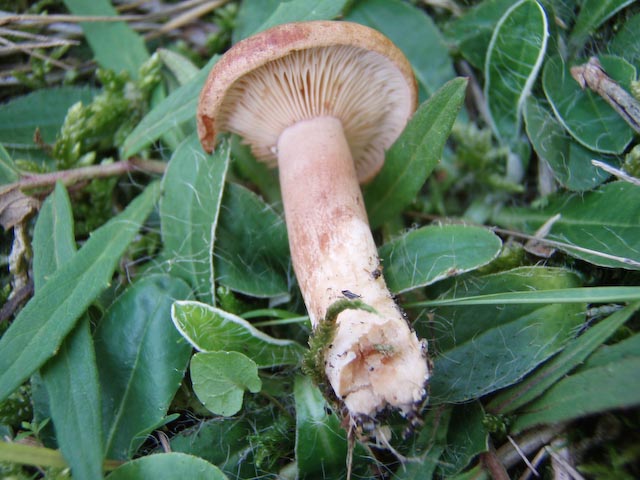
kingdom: Fungi
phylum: Basidiomycota
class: Agaricomycetes
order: Russulales
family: Russulaceae
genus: Lactarius
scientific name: Lactarius rufus
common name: rødbrun mælkehat
